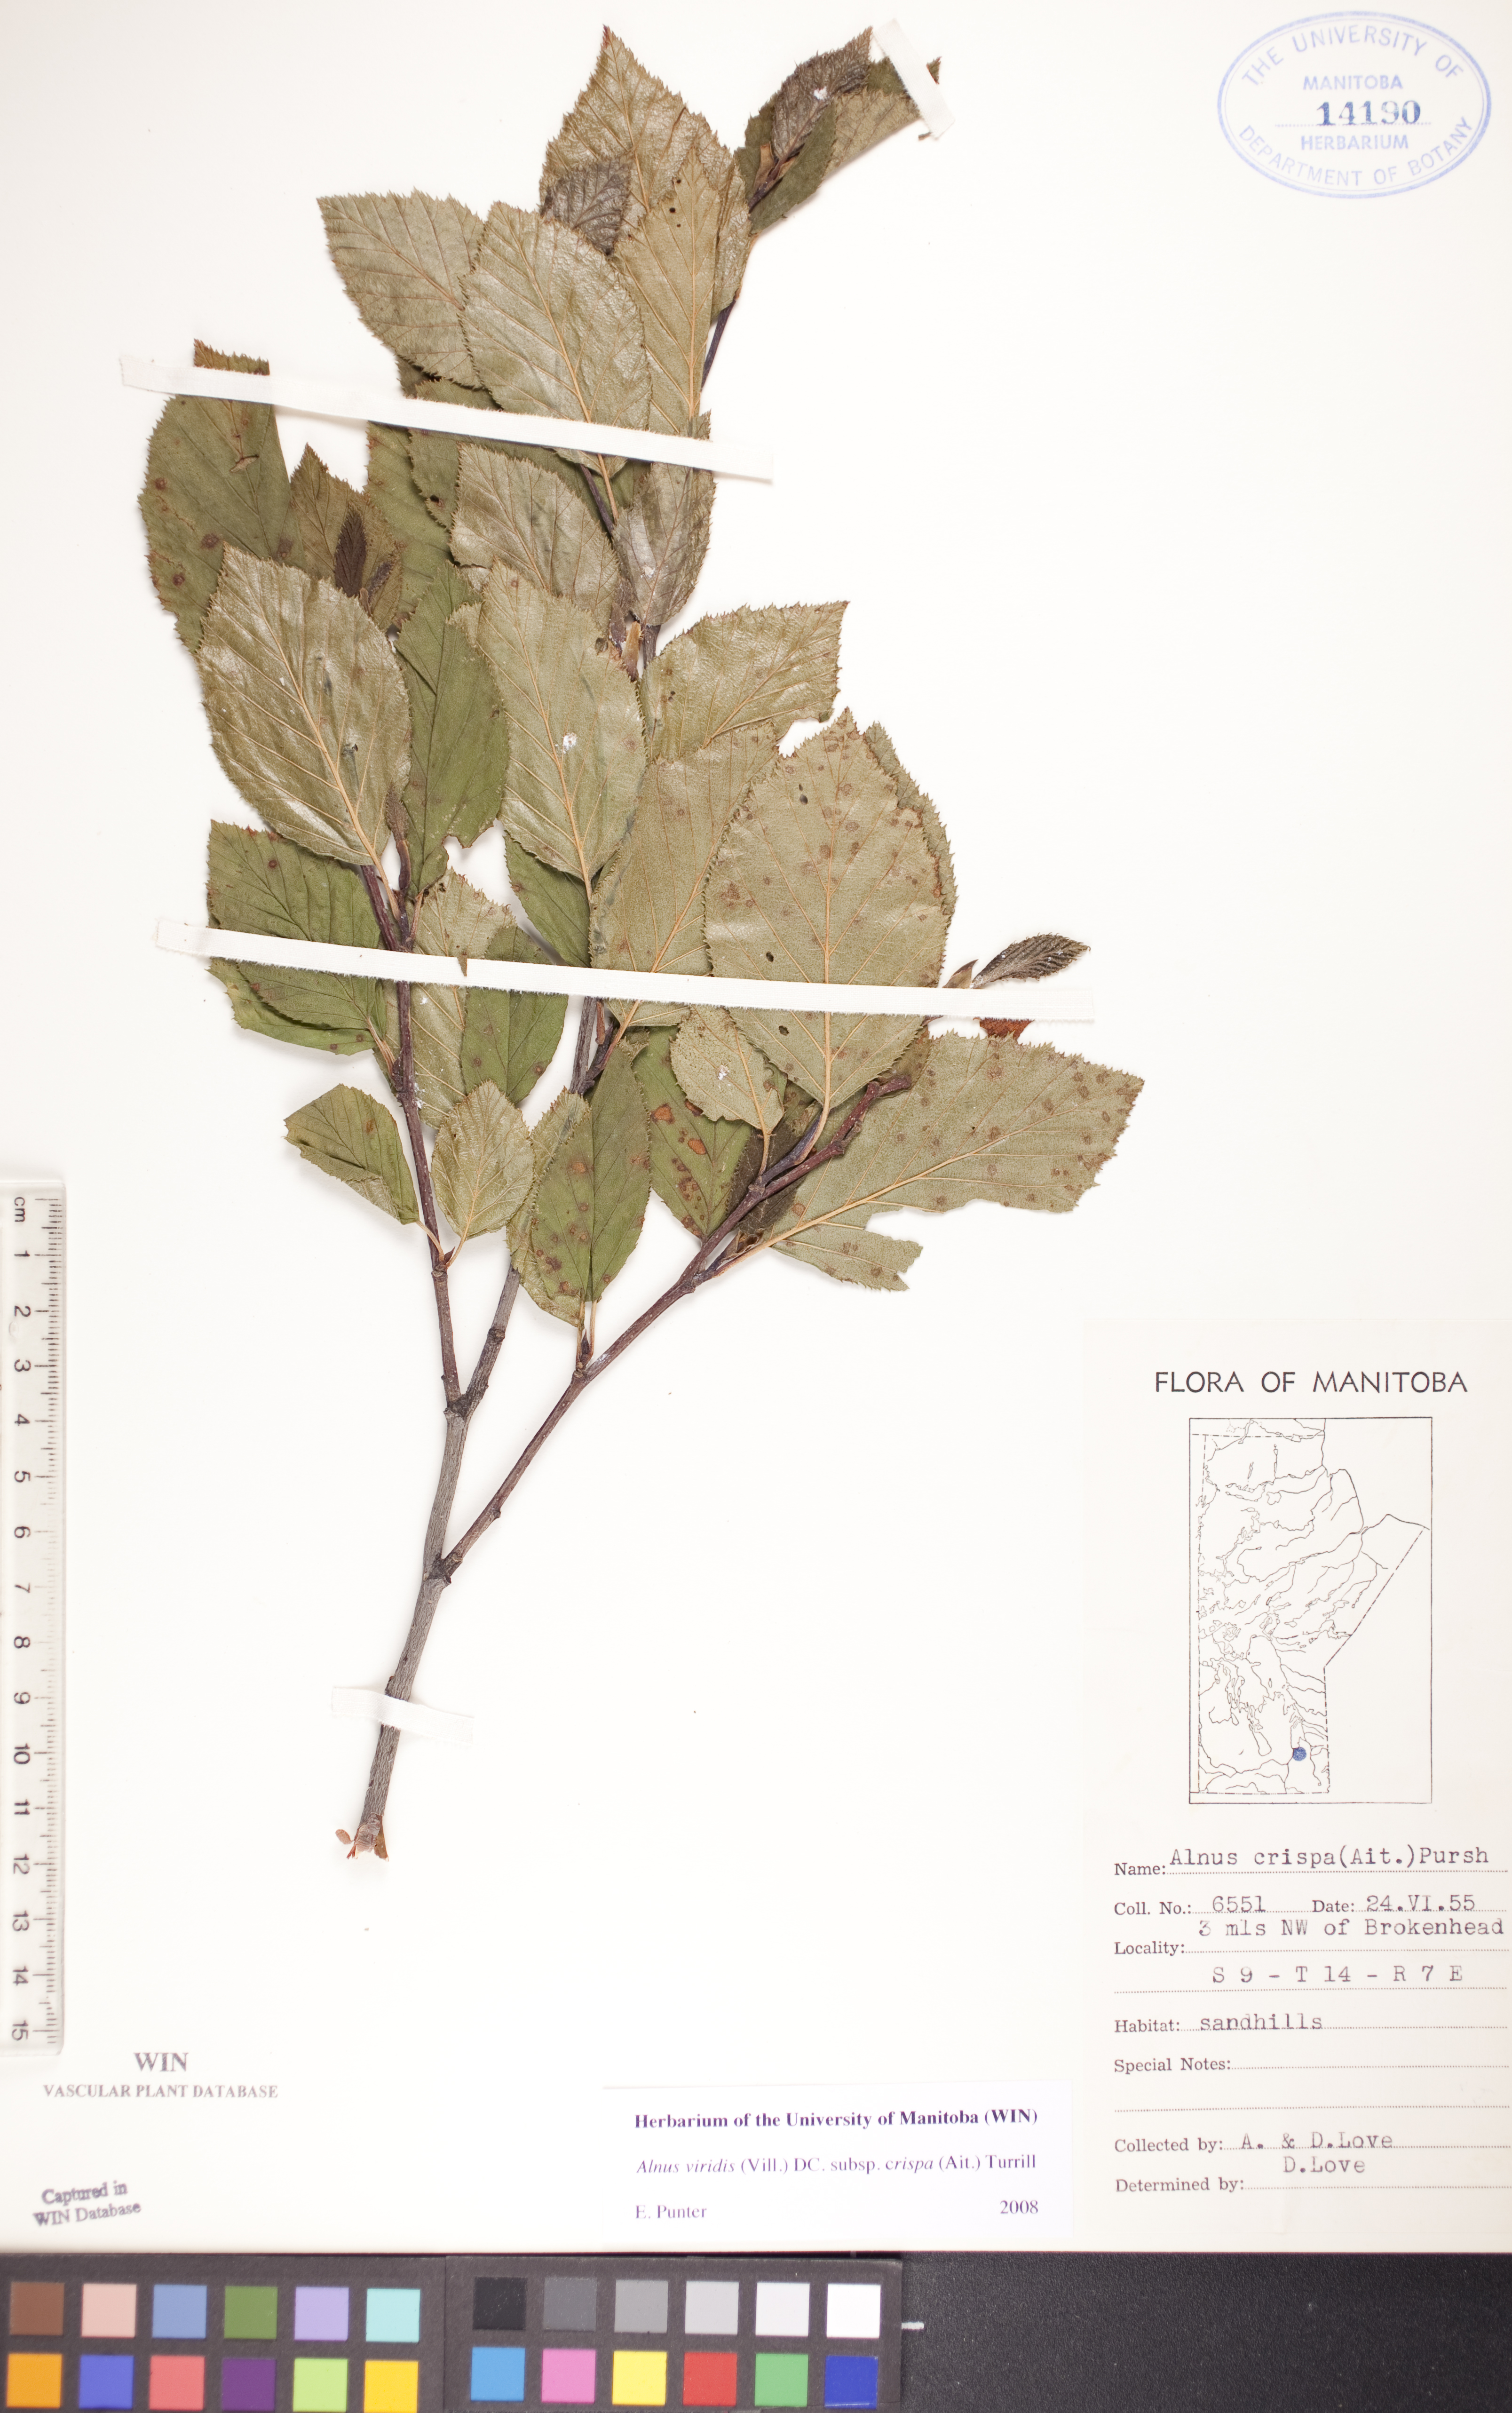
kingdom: Plantae
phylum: Tracheophyta
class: Magnoliopsida
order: Fagales
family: Betulaceae
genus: Alnus
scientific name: Alnus alnobetula
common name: Green alder
